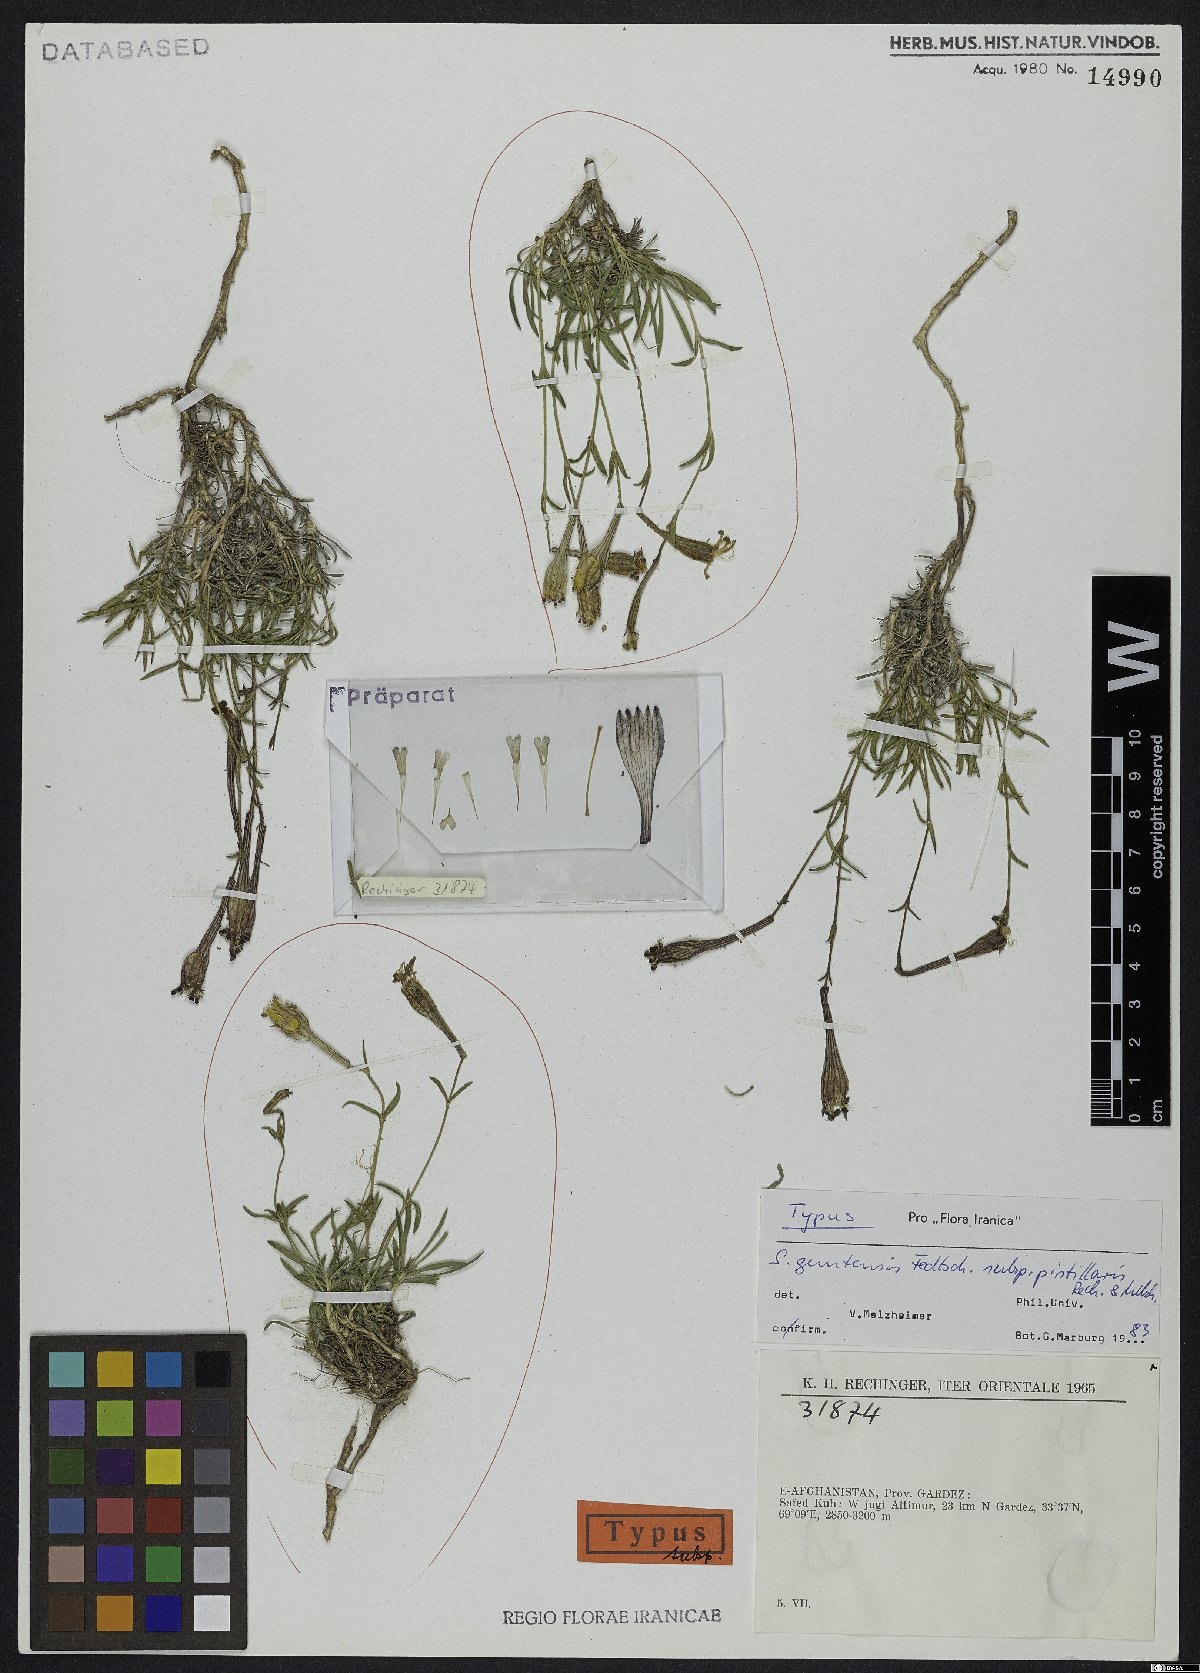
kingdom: Plantae
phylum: Tracheophyta
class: Magnoliopsida
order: Caryophyllales
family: Caryophyllaceae
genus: Silene
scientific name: Silene guntensis
